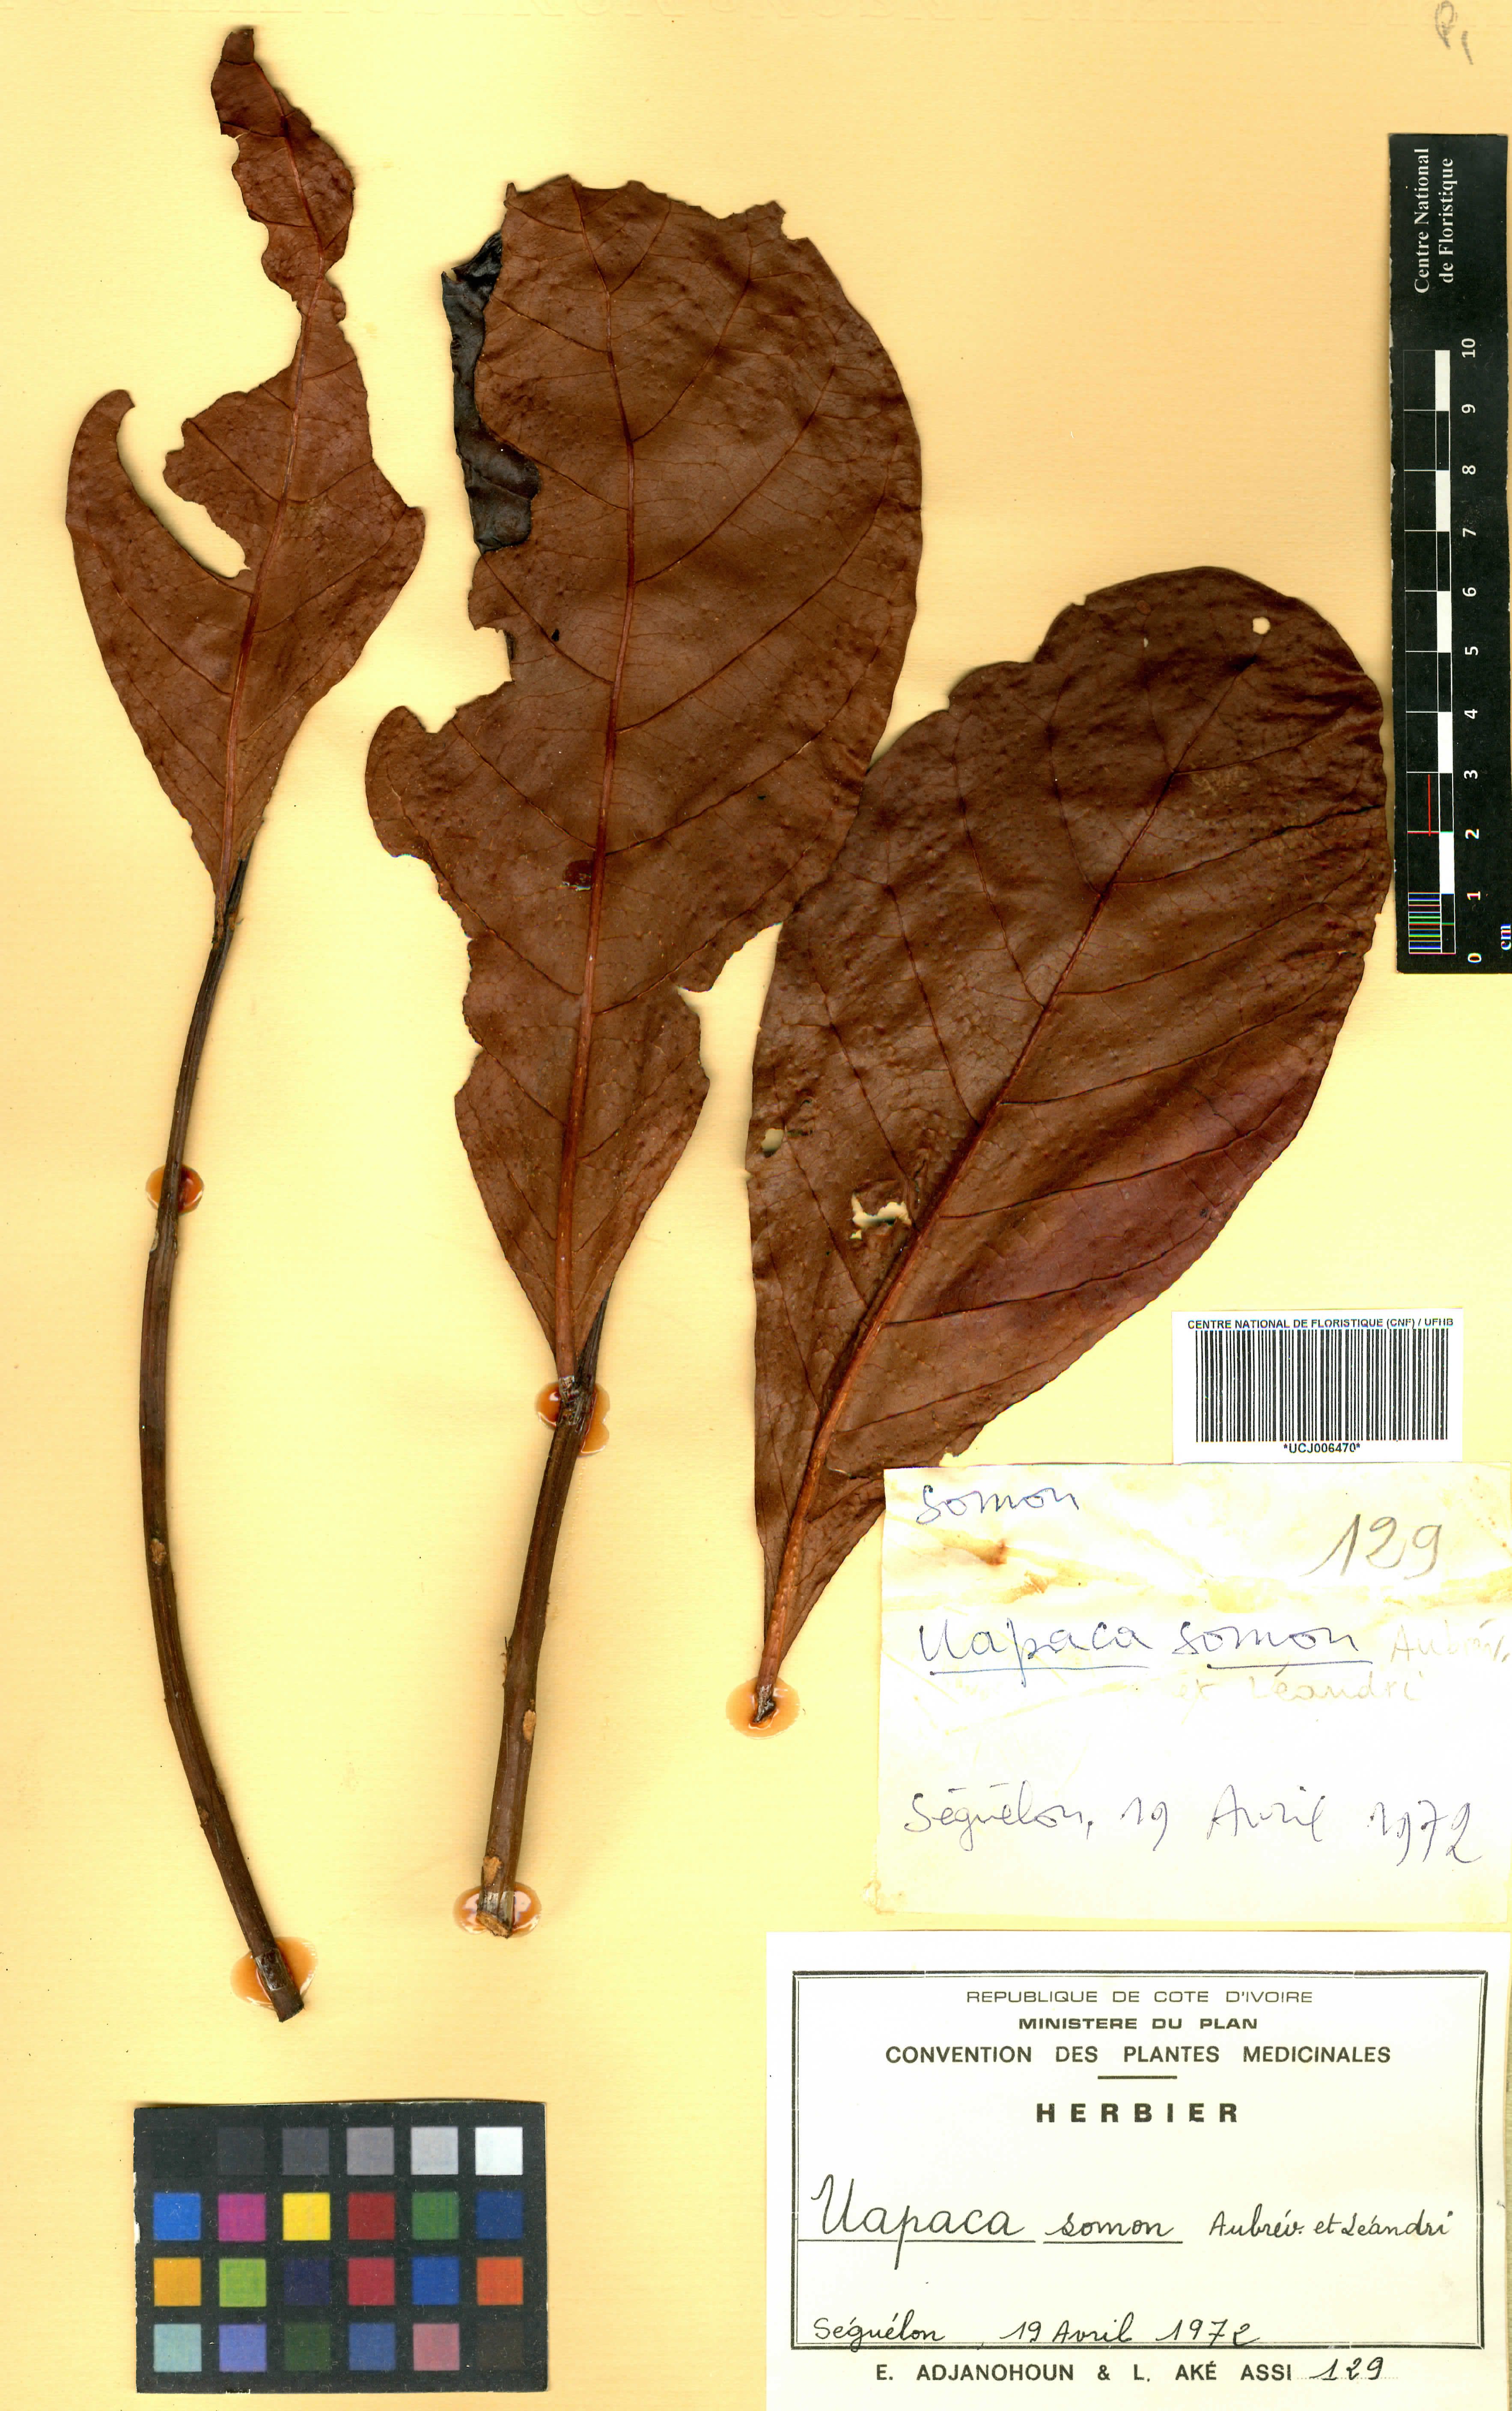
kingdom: Plantae
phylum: Tracheophyta
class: Magnoliopsida
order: Malpighiales
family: Phyllanthaceae
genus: Uapaca
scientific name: Uapaca togoensis
